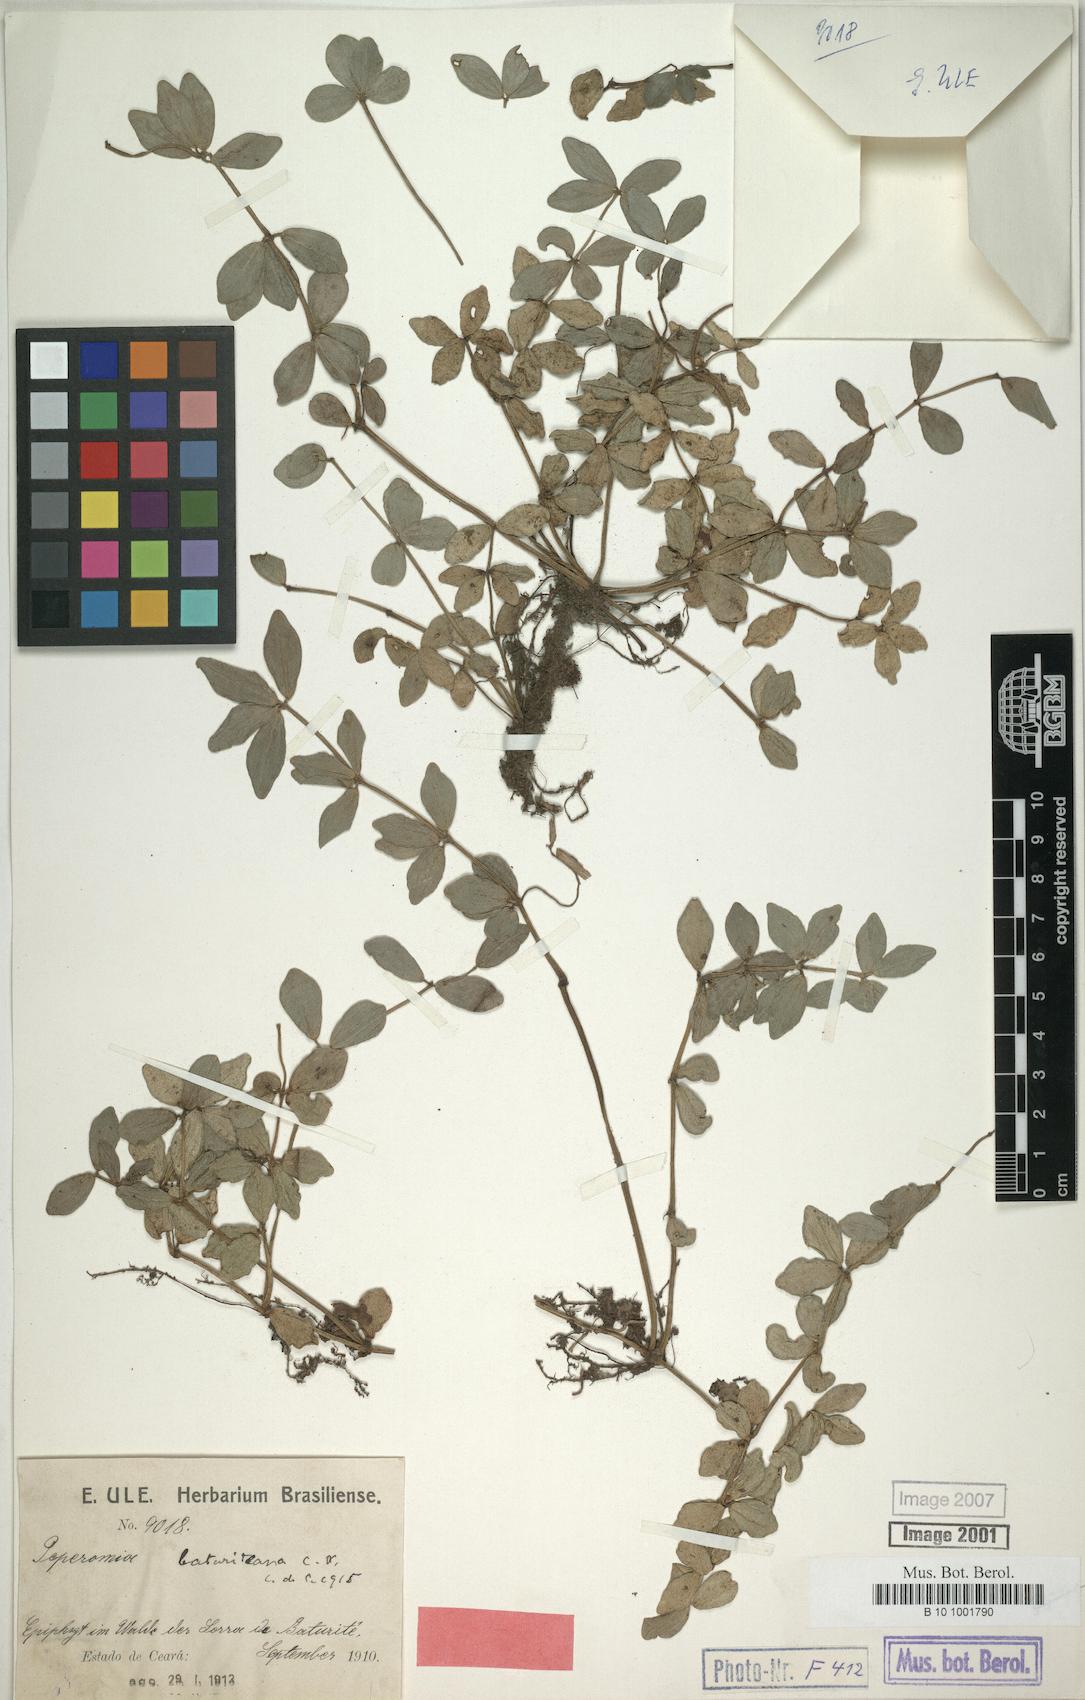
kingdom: Plantae
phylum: Tracheophyta
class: Magnoliopsida
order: Piperales
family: Piperaceae
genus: Peperomia
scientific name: Peperomia tetraphylla
